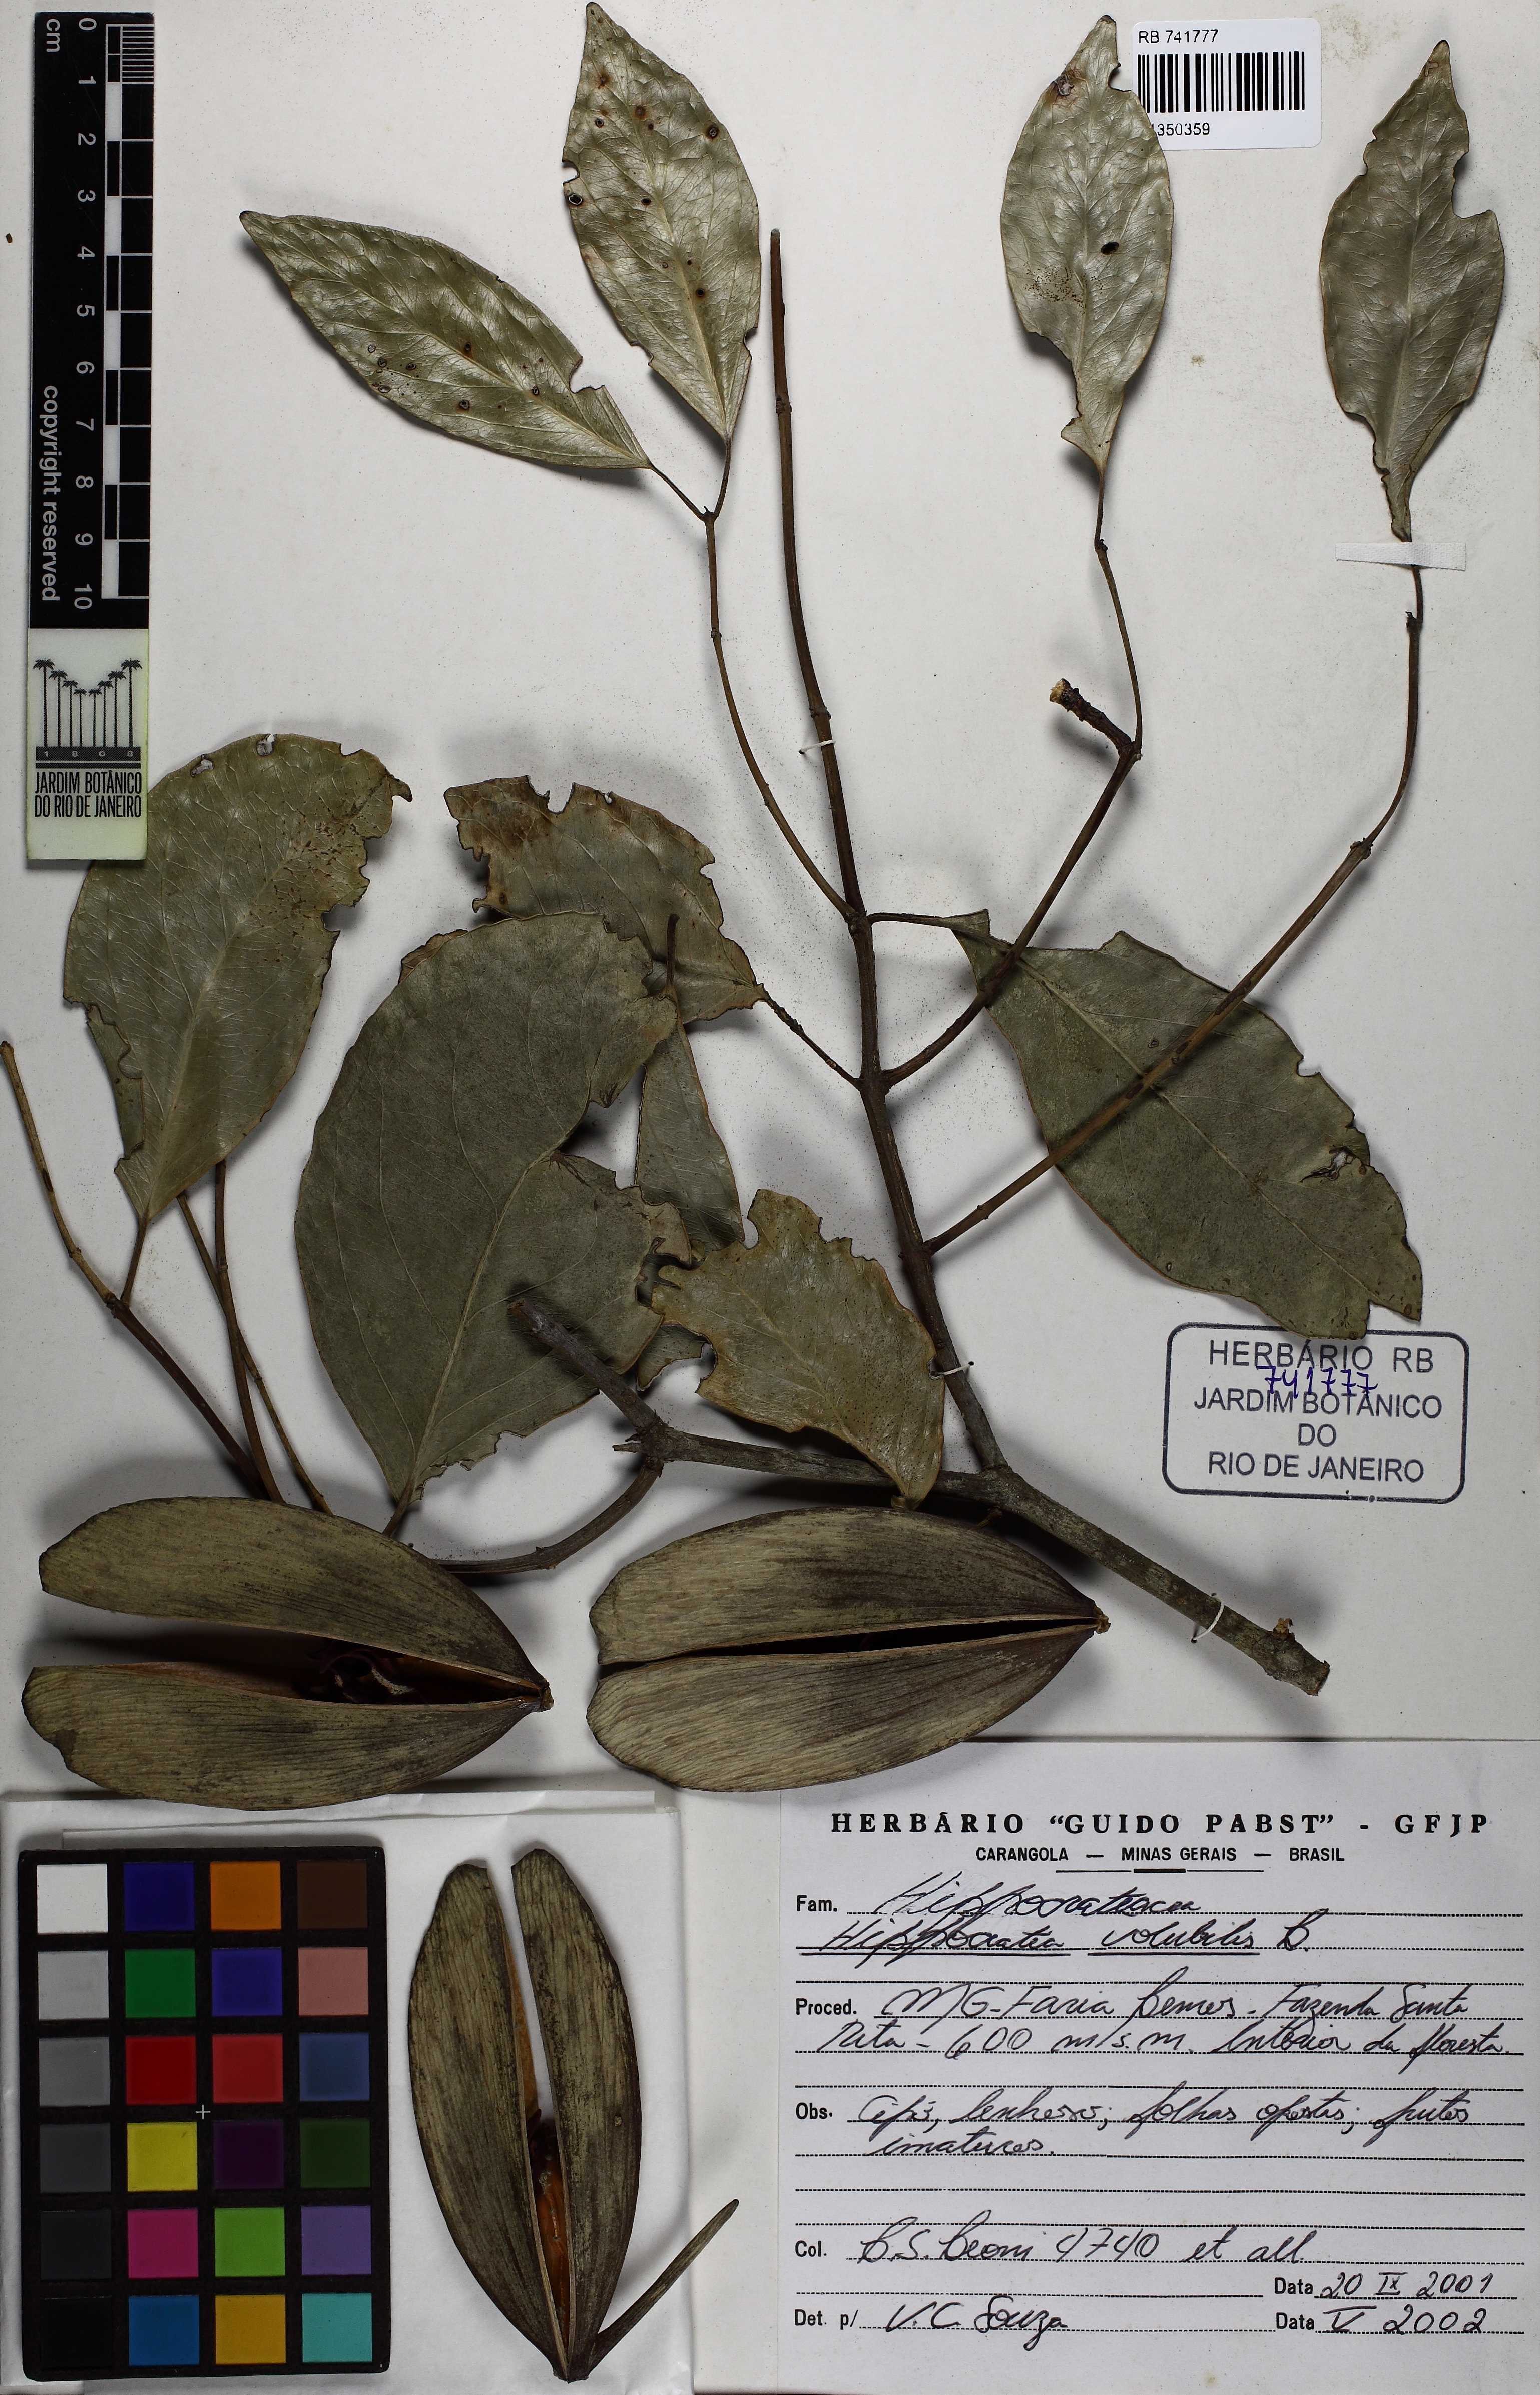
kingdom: Plantae
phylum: Tracheophyta
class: Magnoliopsida
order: Celastrales
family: Celastraceae
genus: Hippocratea
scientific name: Hippocratea volubilis
